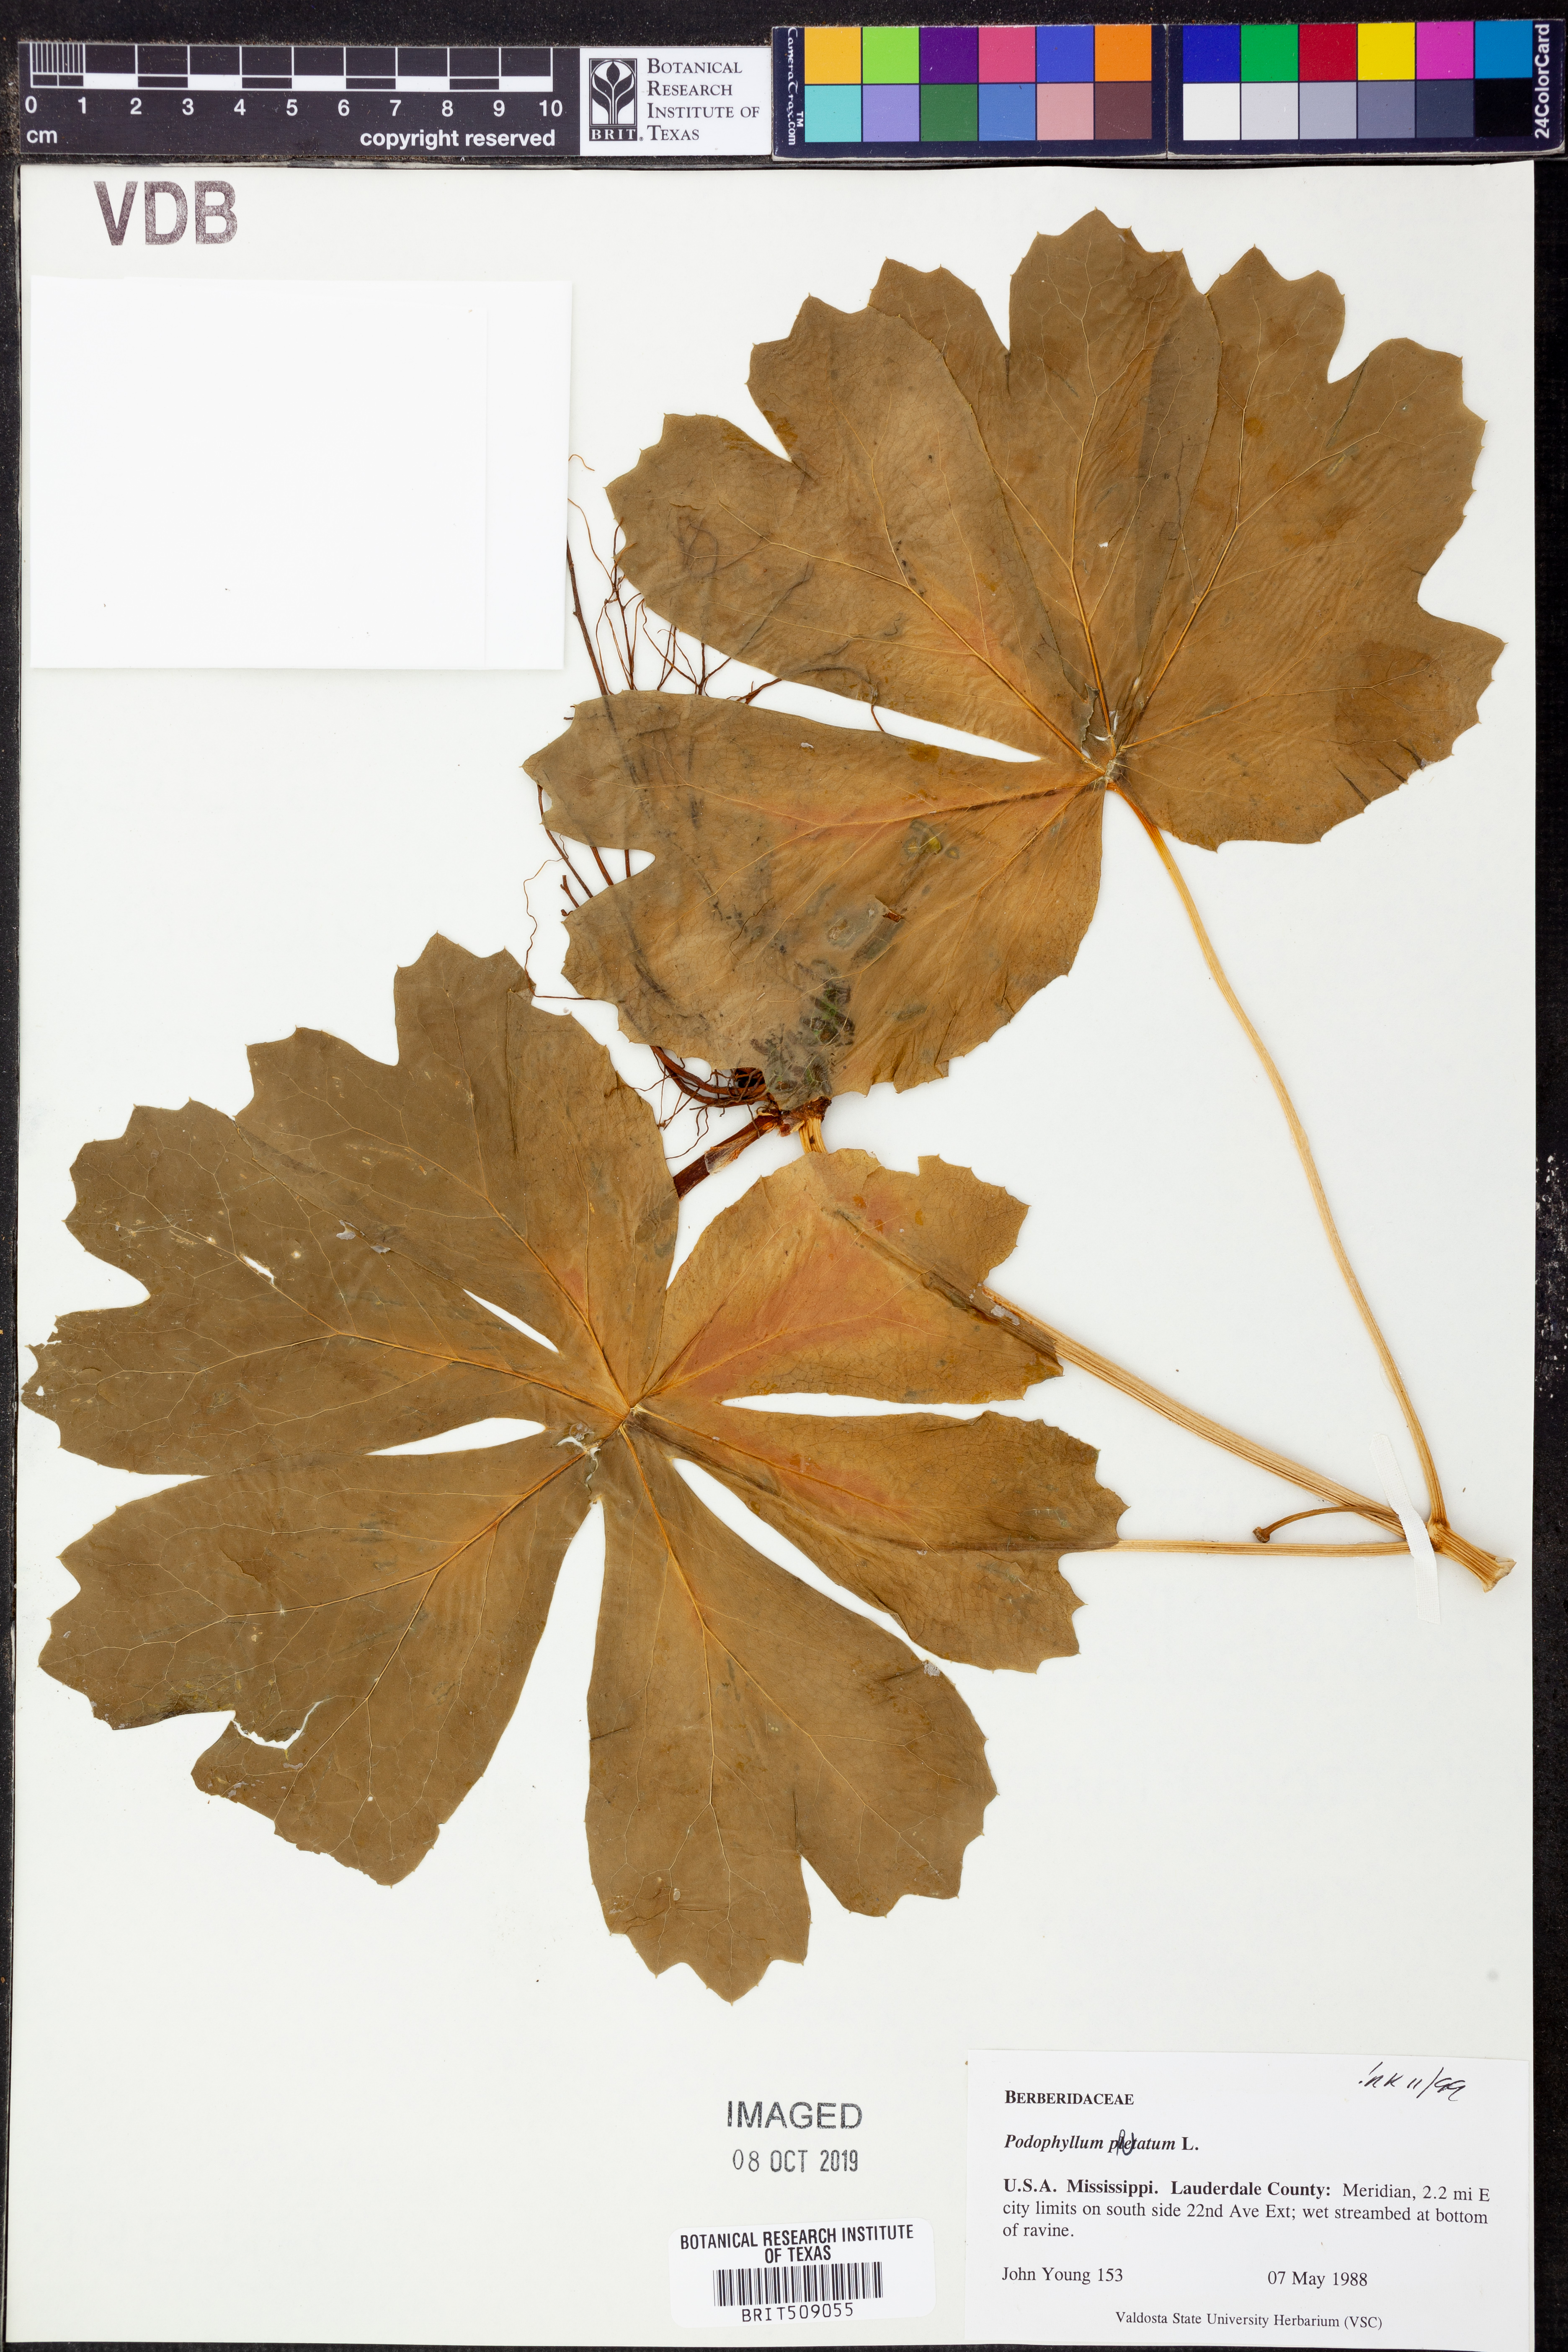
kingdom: Plantae
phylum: Tracheophyta
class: Magnoliopsida
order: Ranunculales
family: Berberidaceae
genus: Podophyllum
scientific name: Podophyllum peltatum
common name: Wild mandrake
